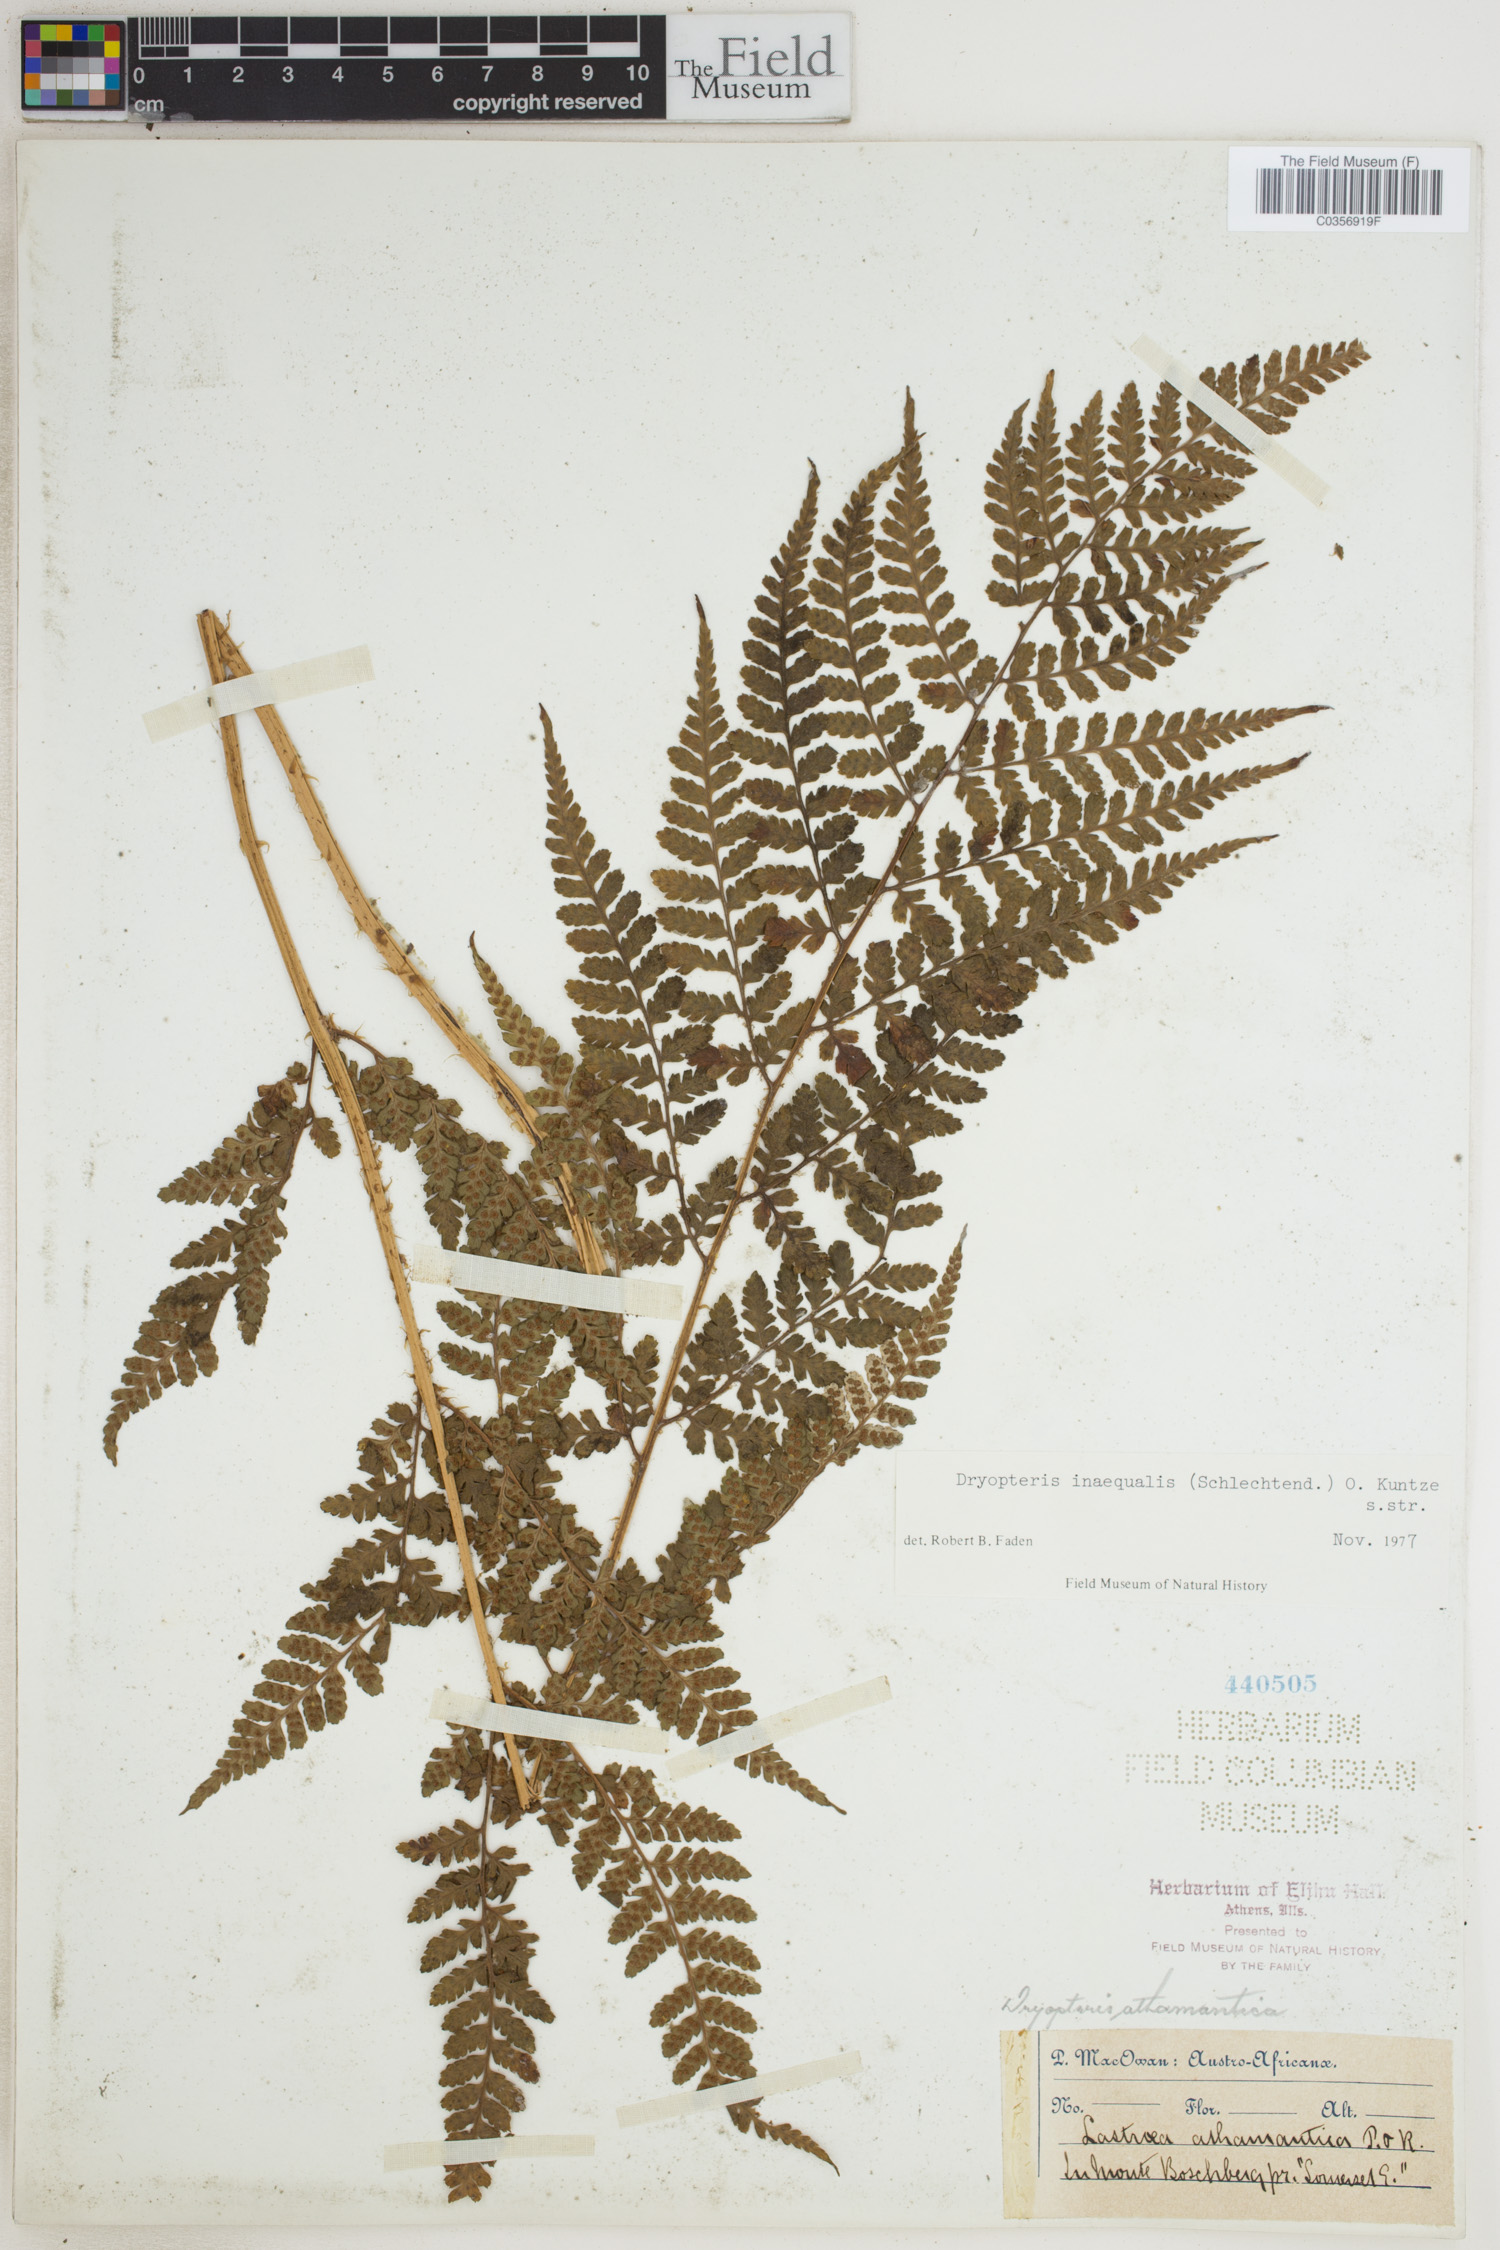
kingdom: Plantae
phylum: Tracheophyta
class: Polypodiopsida
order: Polypodiales
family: Dryopteridaceae
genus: Dryopteris
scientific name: Dryopteris inaequalis
